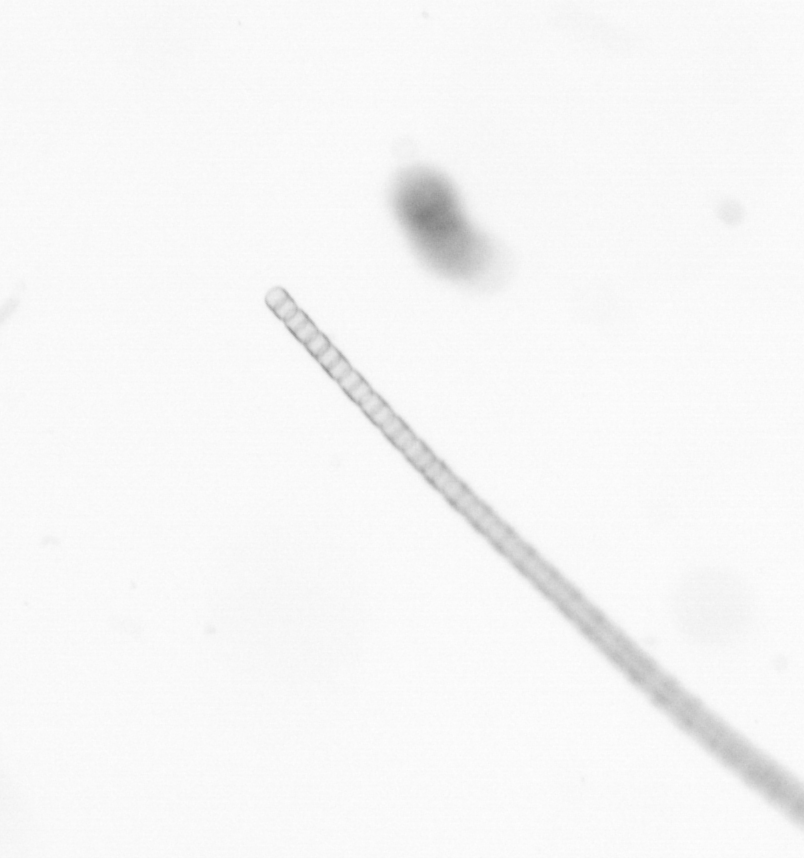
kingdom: Chromista
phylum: Ochrophyta
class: Bacillariophyceae
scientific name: Bacillariophyceae
